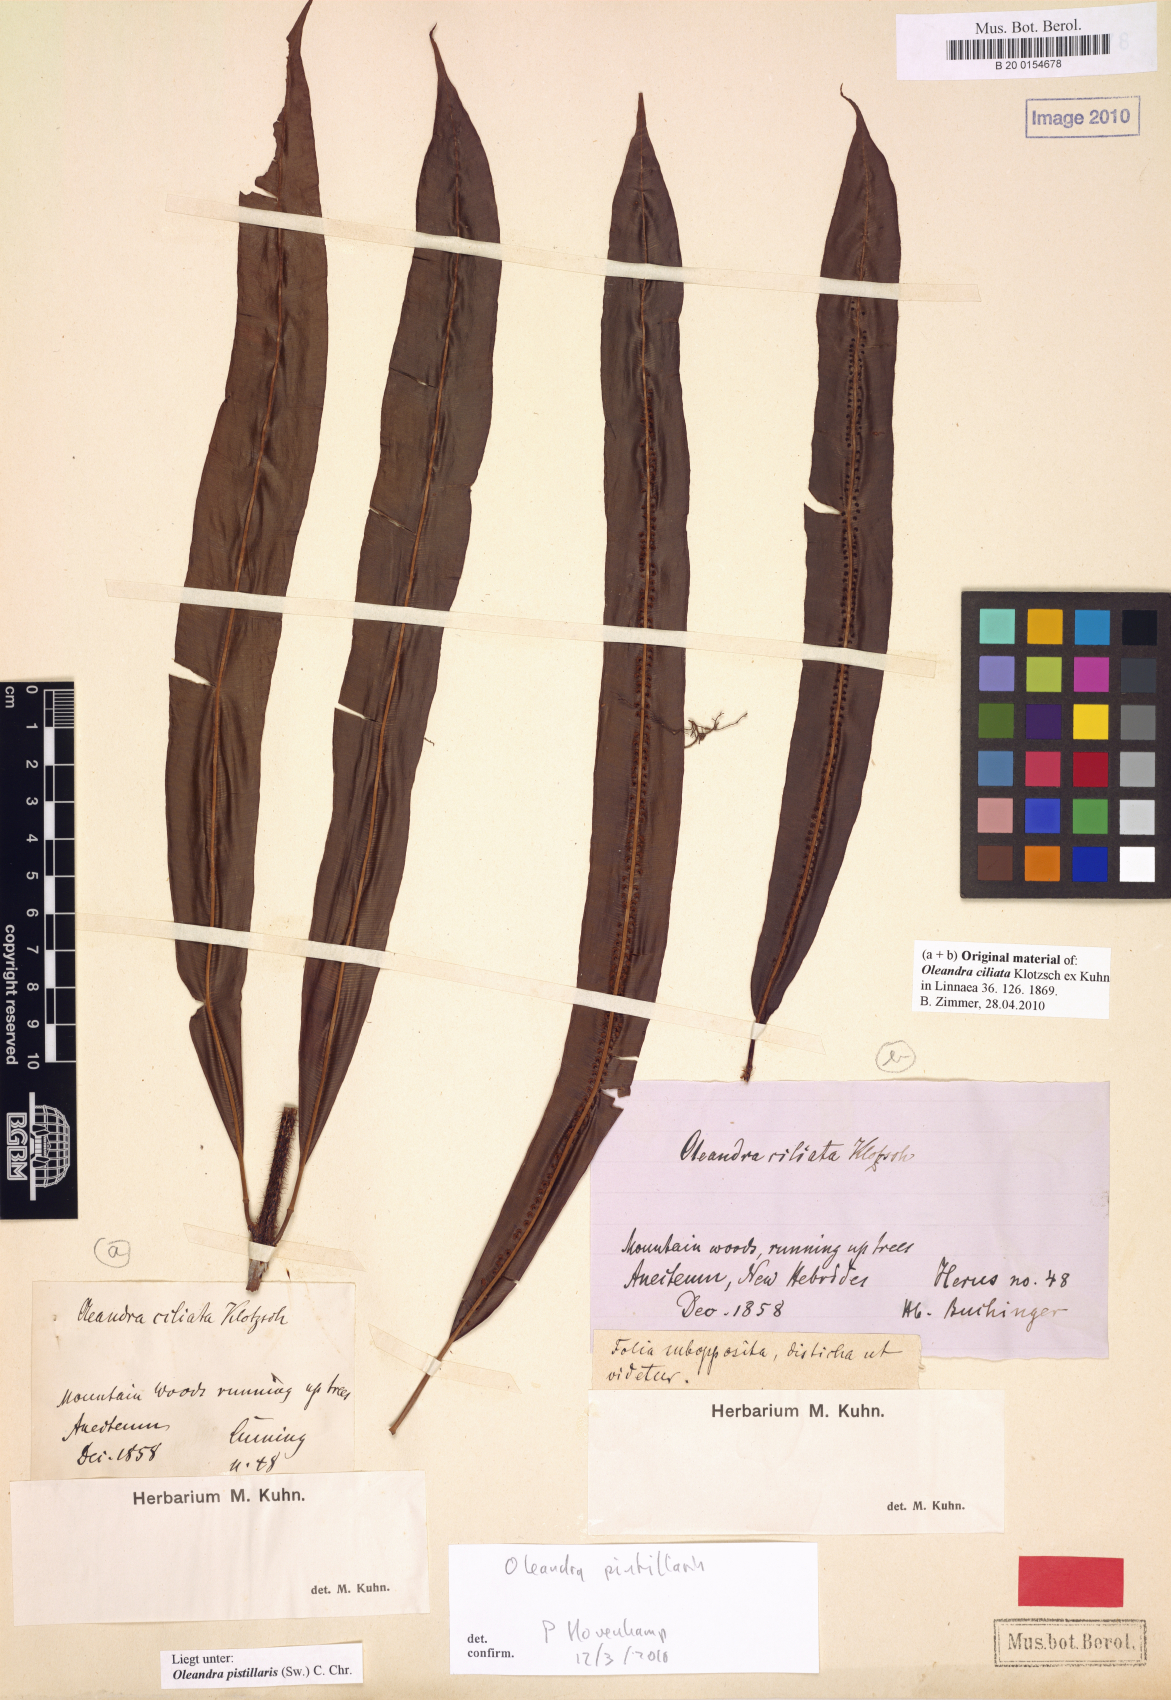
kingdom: Plantae
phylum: Tracheophyta
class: Polypodiopsida
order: Polypodiales
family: Oleandraceae
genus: Oleandra
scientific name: Oleandra pistillaris
